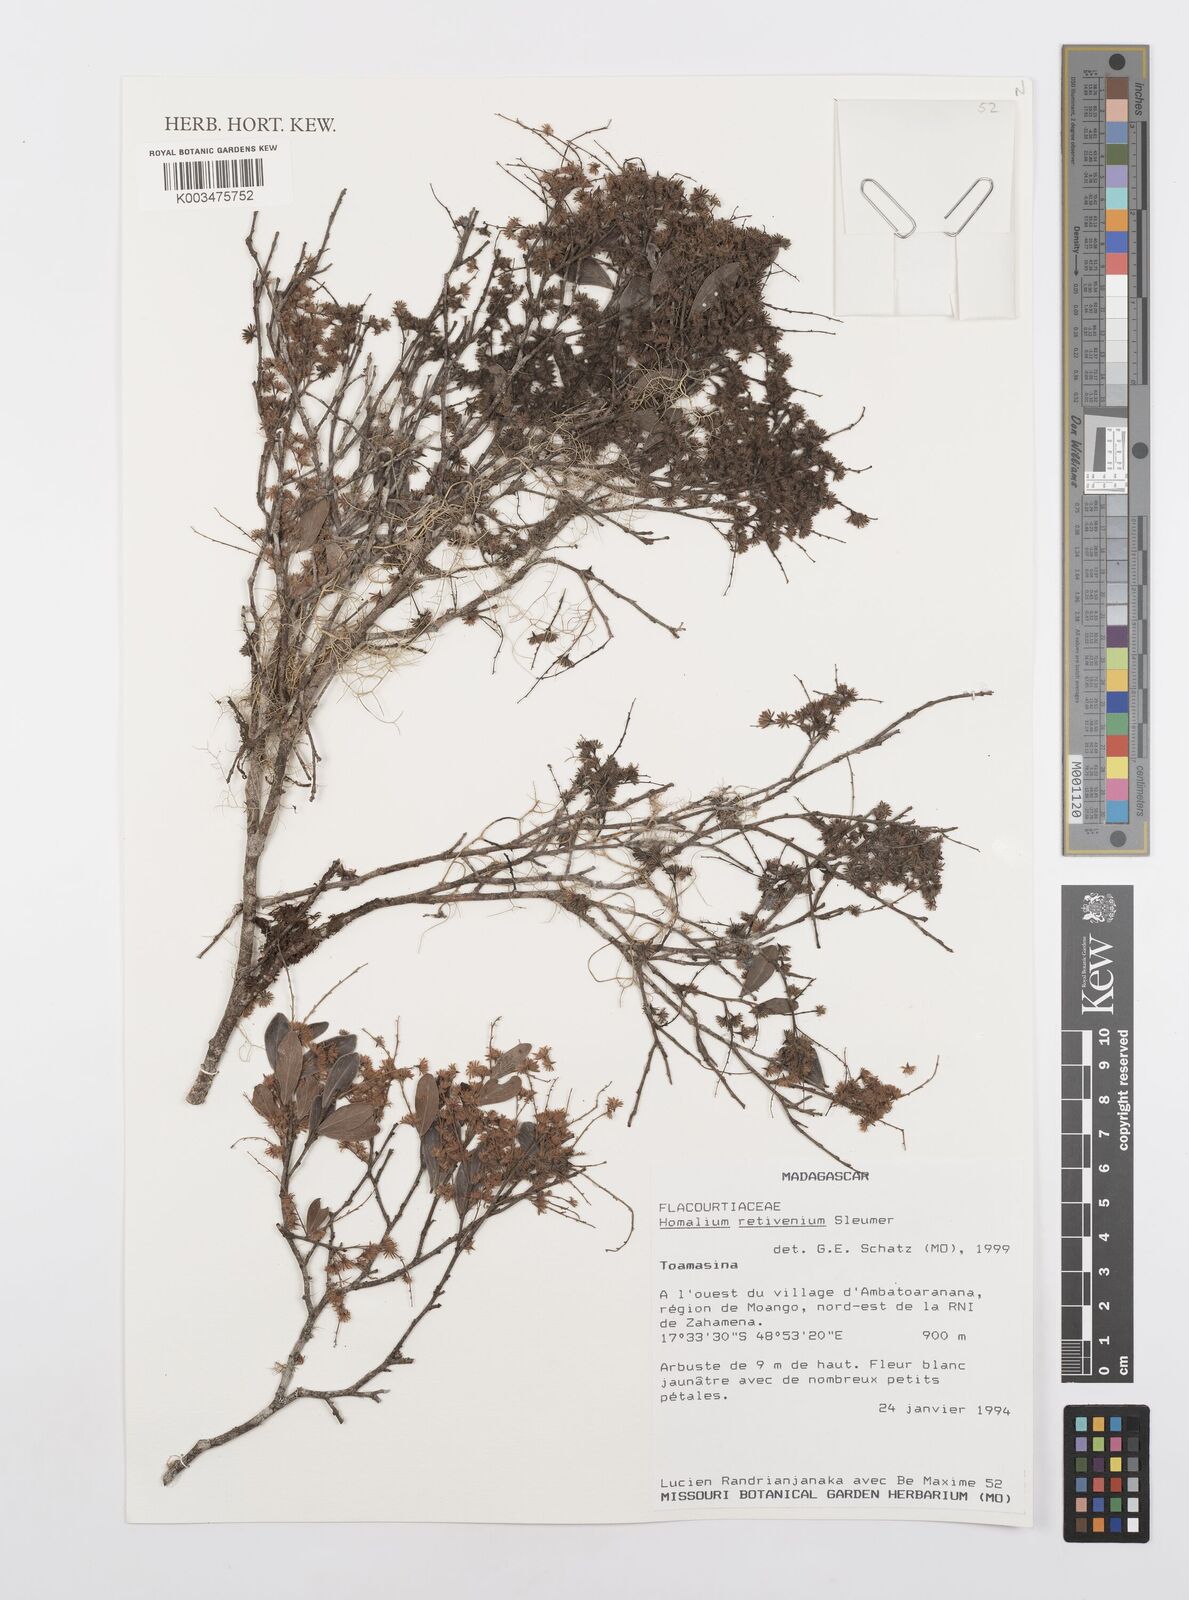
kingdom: Plantae
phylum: Tracheophyta
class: Magnoliopsida
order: Malpighiales
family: Salicaceae
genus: Homalium
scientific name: Homalium retivenium
